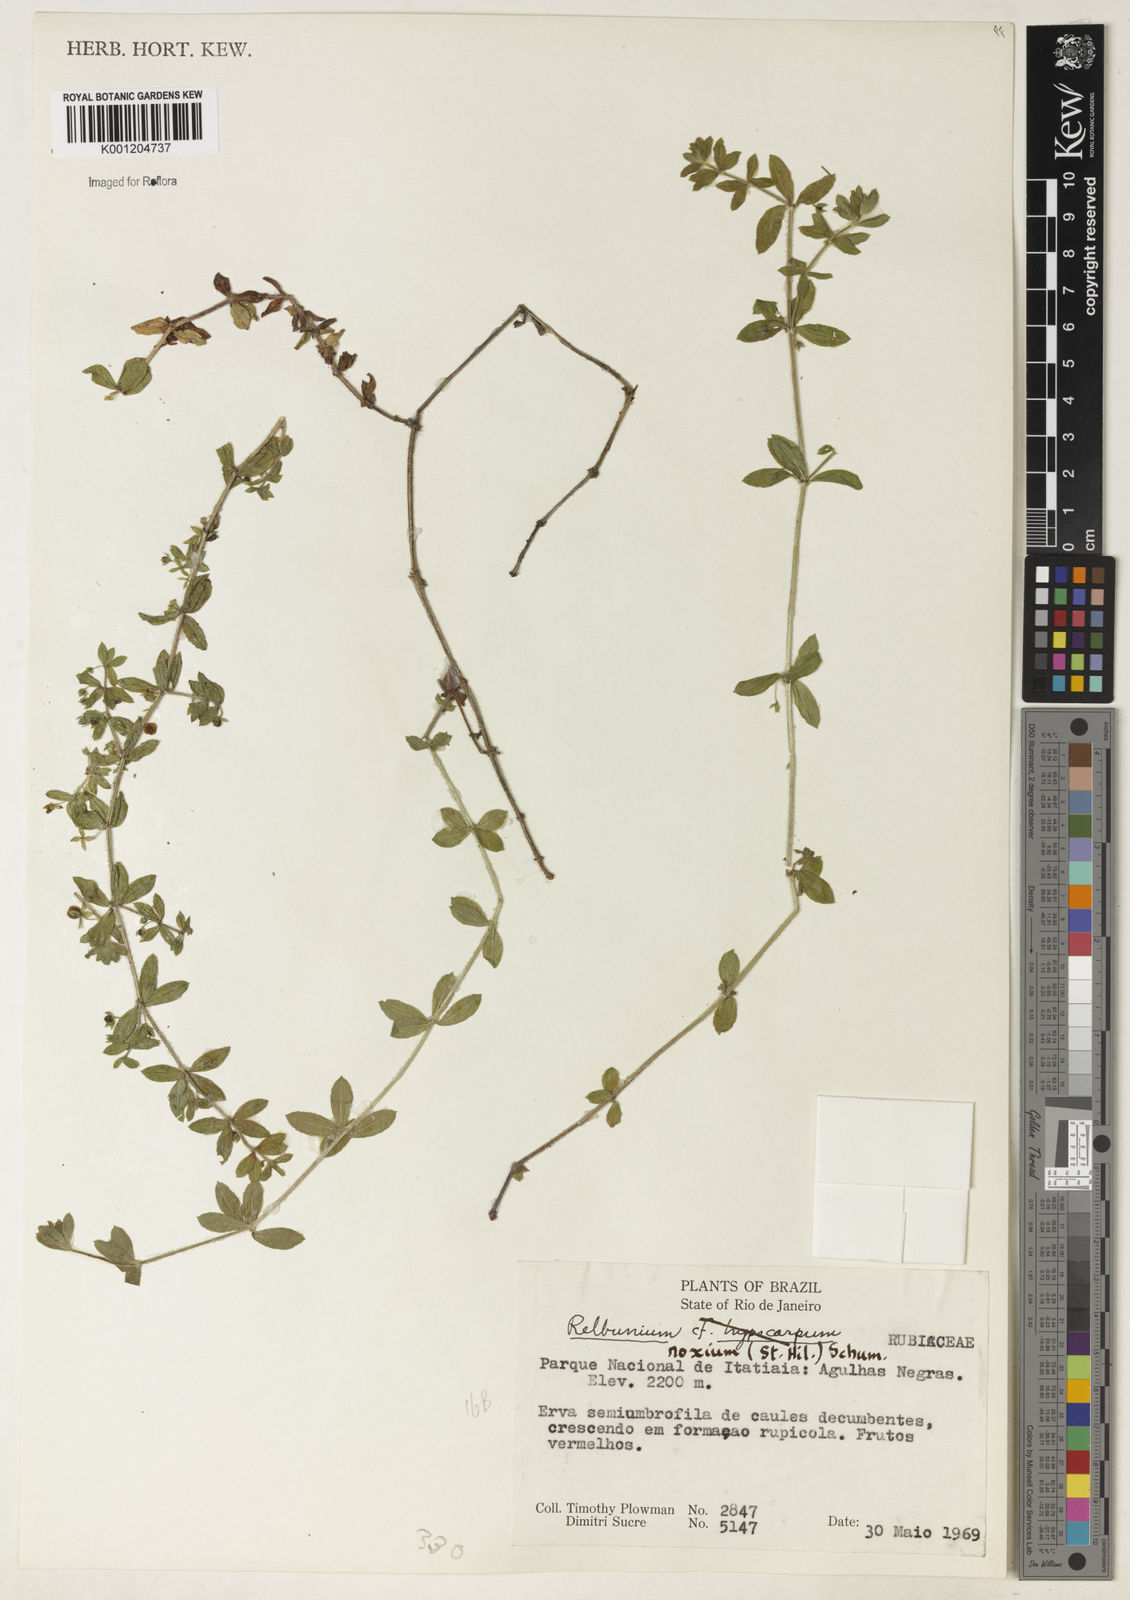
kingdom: Plantae
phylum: Tracheophyta
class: Magnoliopsida
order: Gentianales
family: Rubiaceae
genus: Galium
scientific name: Galium noxium
